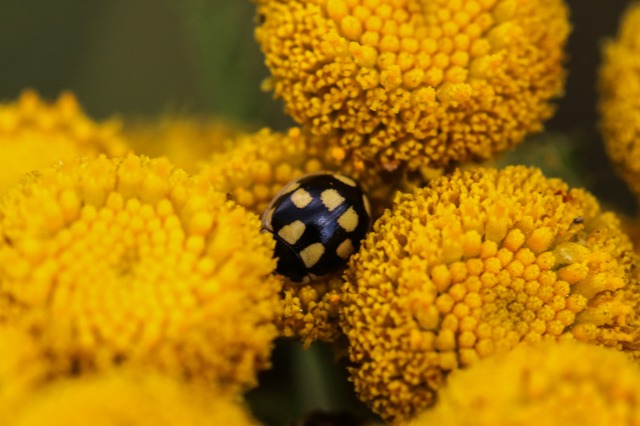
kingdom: Animalia
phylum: Arthropoda
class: Insecta
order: Coleoptera
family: Coccinellidae
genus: Propylaea
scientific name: Propylaea quatuordecimpunctata
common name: Skakbræt
